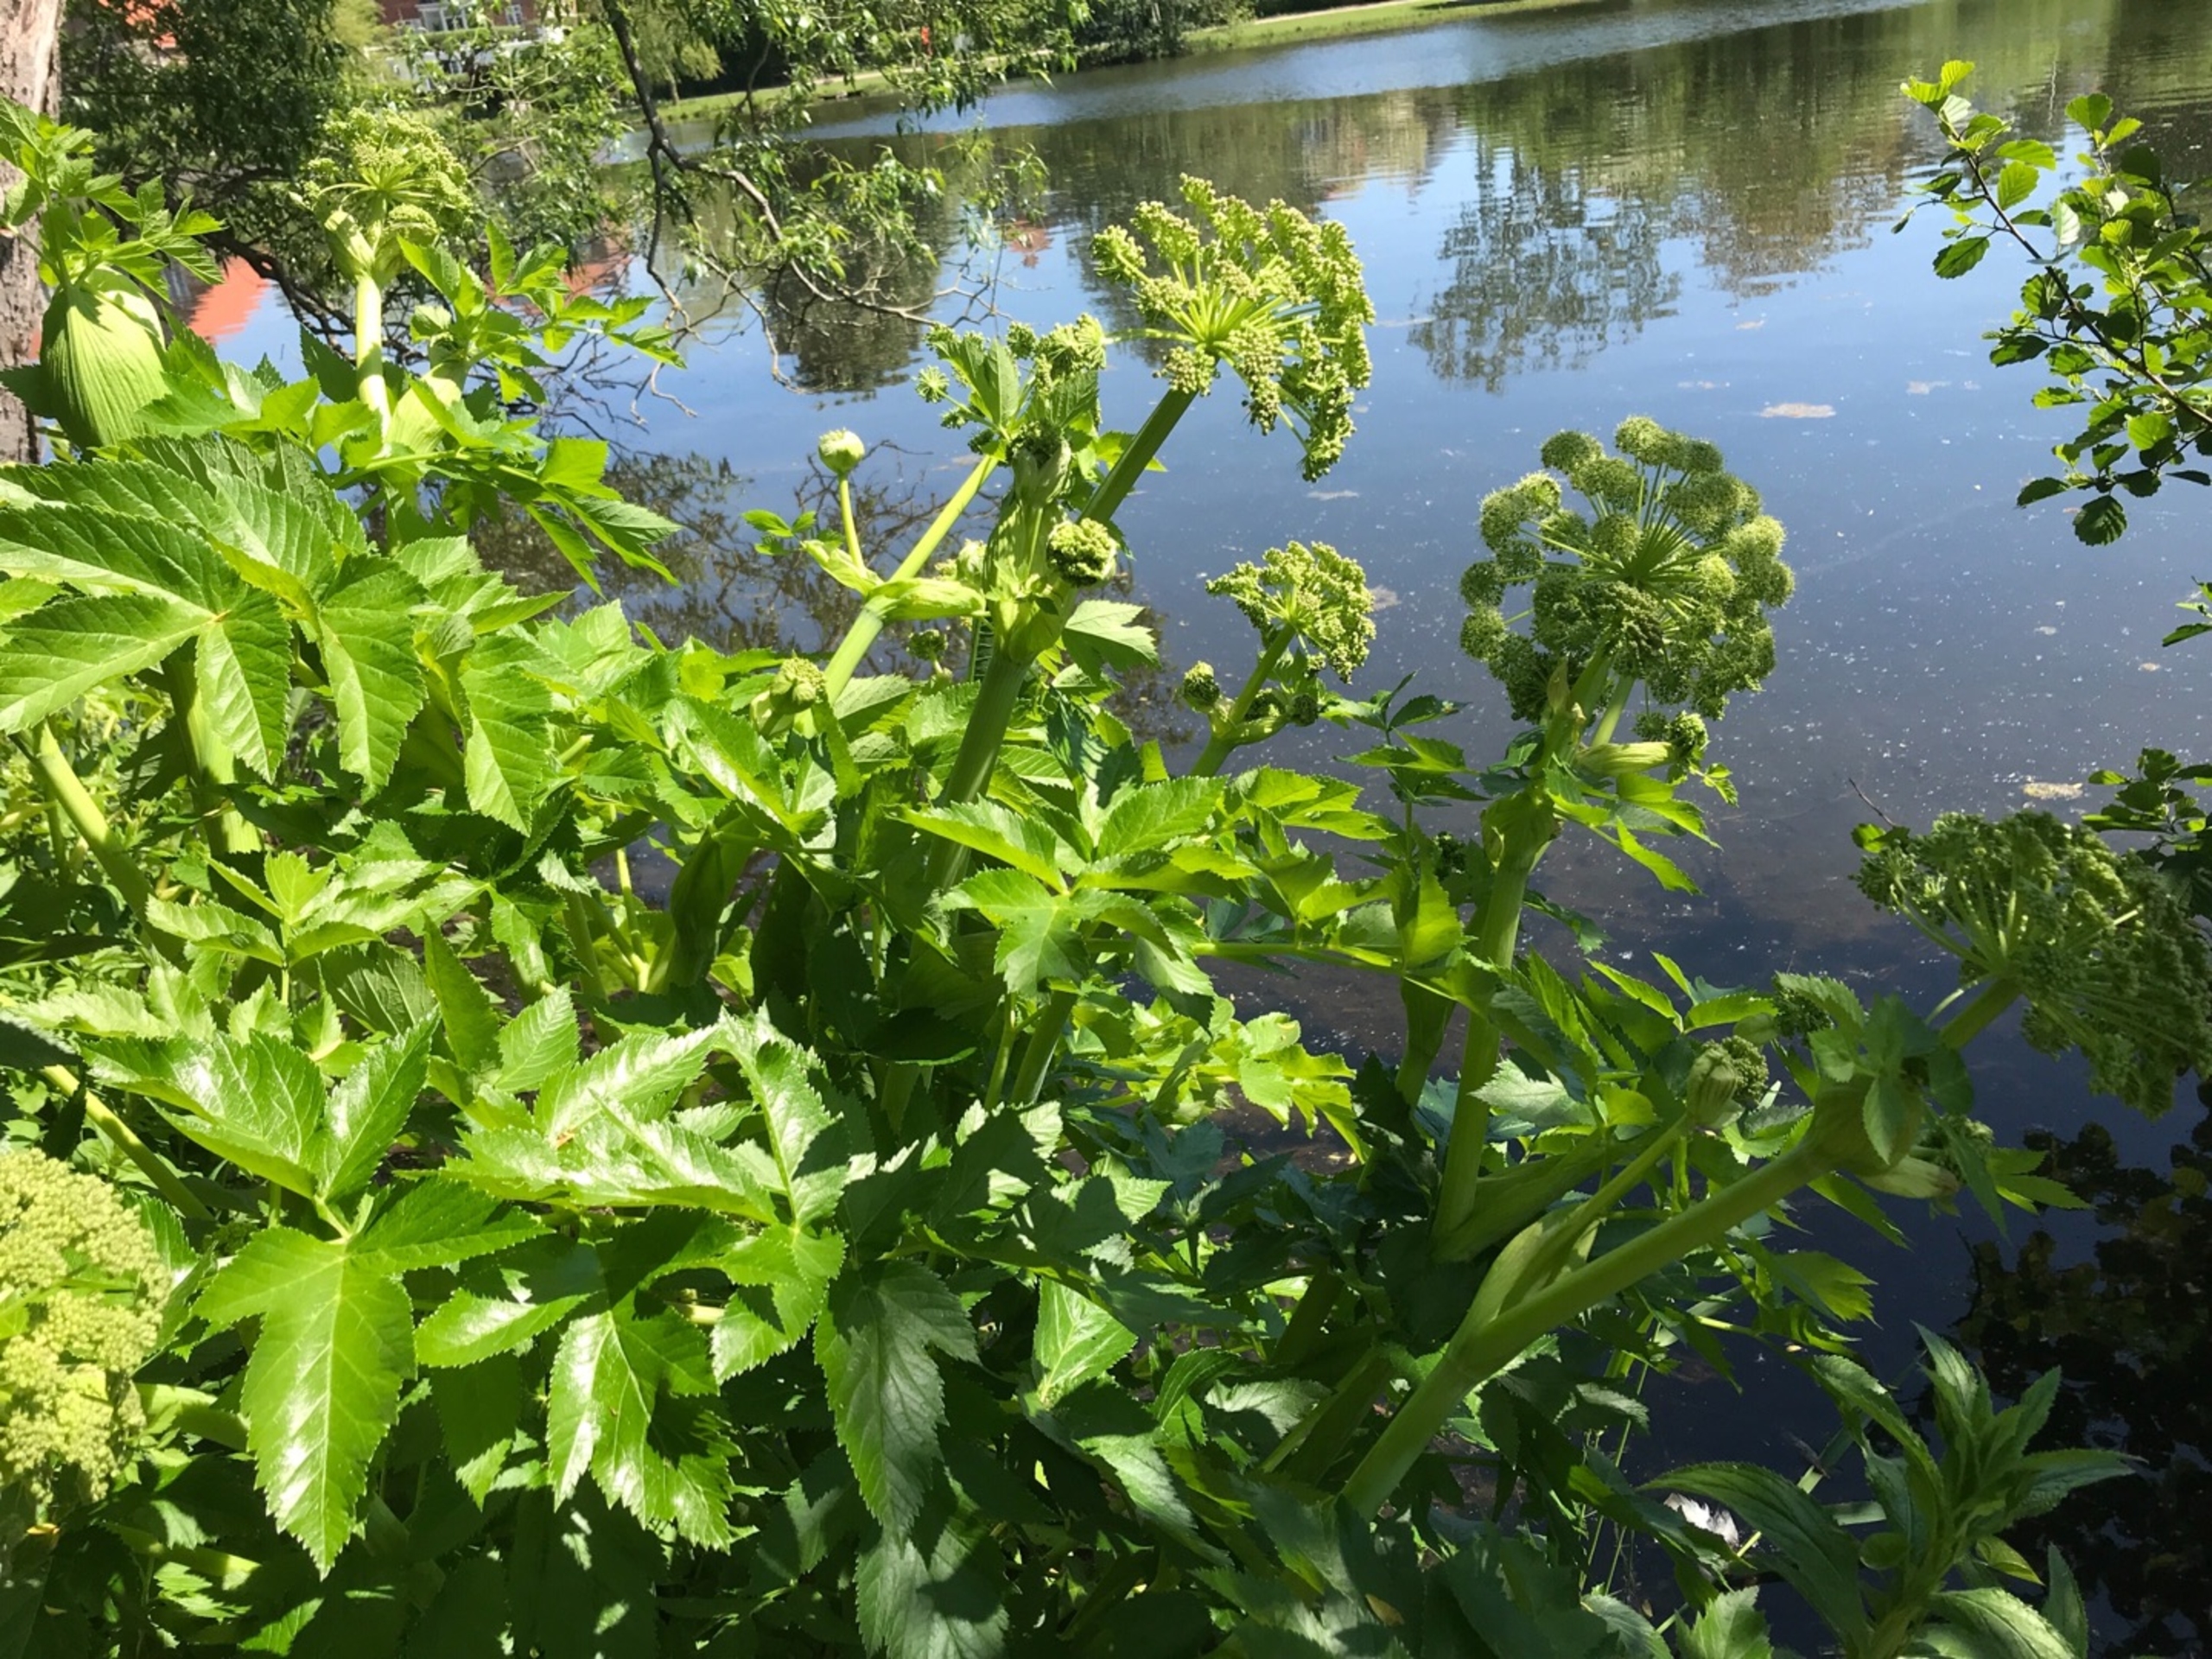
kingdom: Plantae
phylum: Tracheophyta
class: Magnoliopsida
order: Apiales
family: Apiaceae
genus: Angelica
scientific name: Angelica archangelica
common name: Kvan
